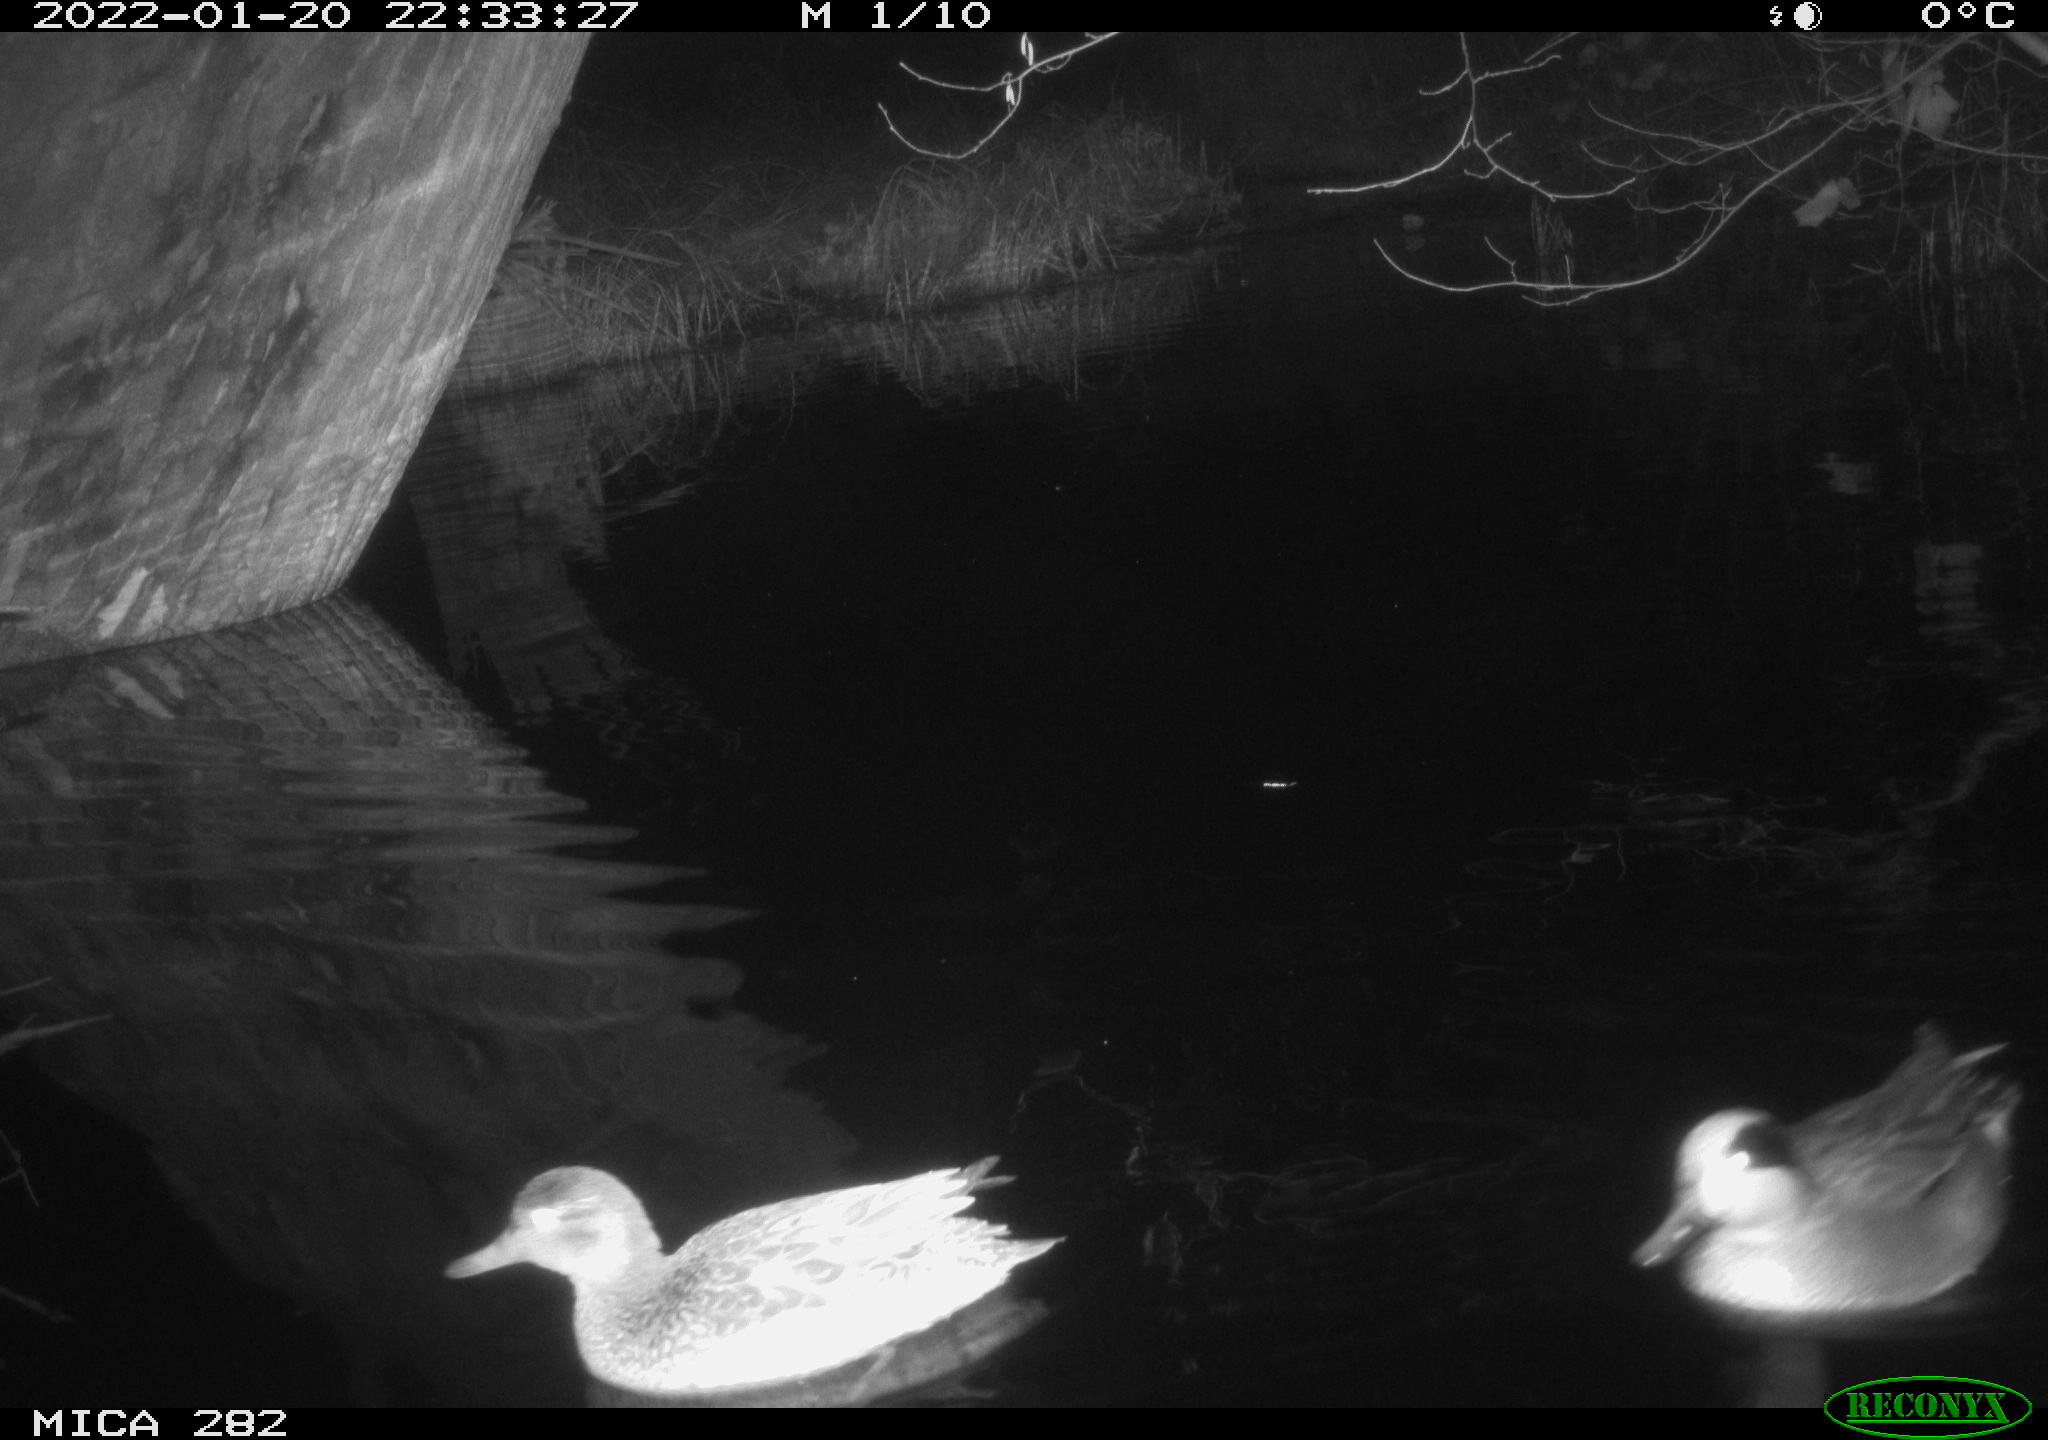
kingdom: Animalia
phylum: Chordata
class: Aves
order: Anseriformes
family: Anatidae
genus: Mareca
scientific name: Mareca strepera
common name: Gadwall
